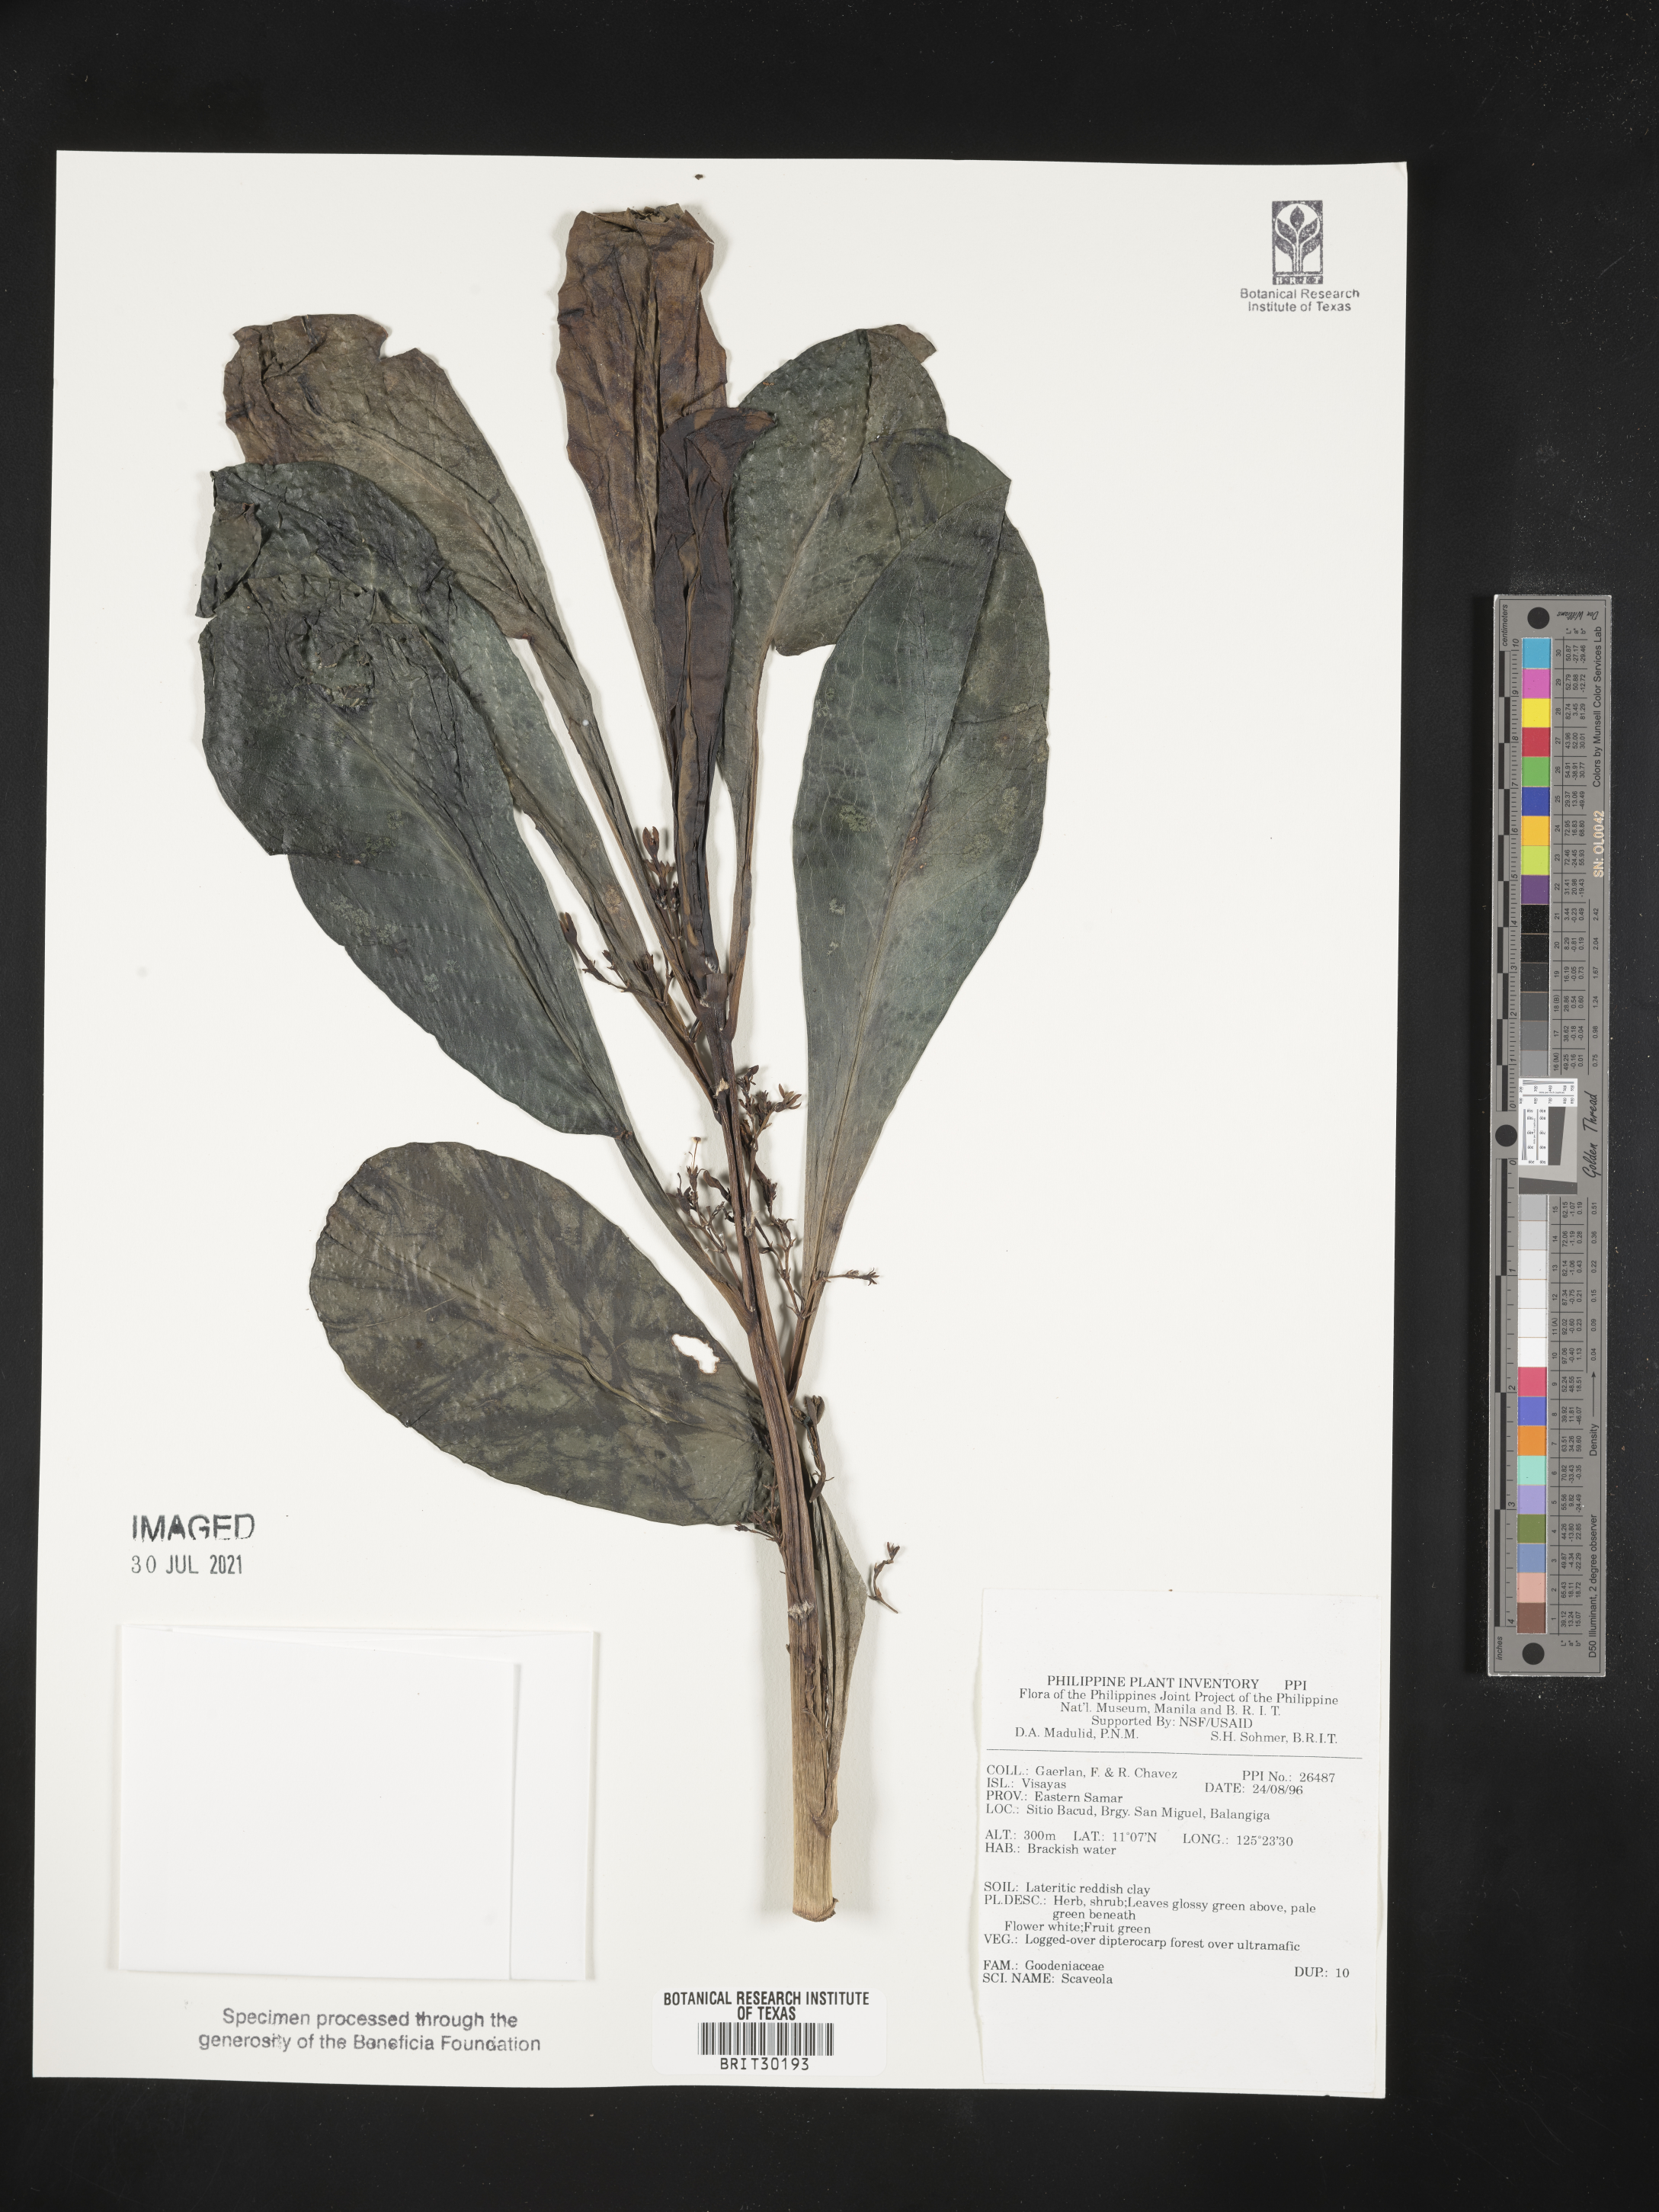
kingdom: Plantae
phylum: Tracheophyta
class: Magnoliopsida
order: Asterales
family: Goodeniaceae
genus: Scaevola
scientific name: Scaevola
